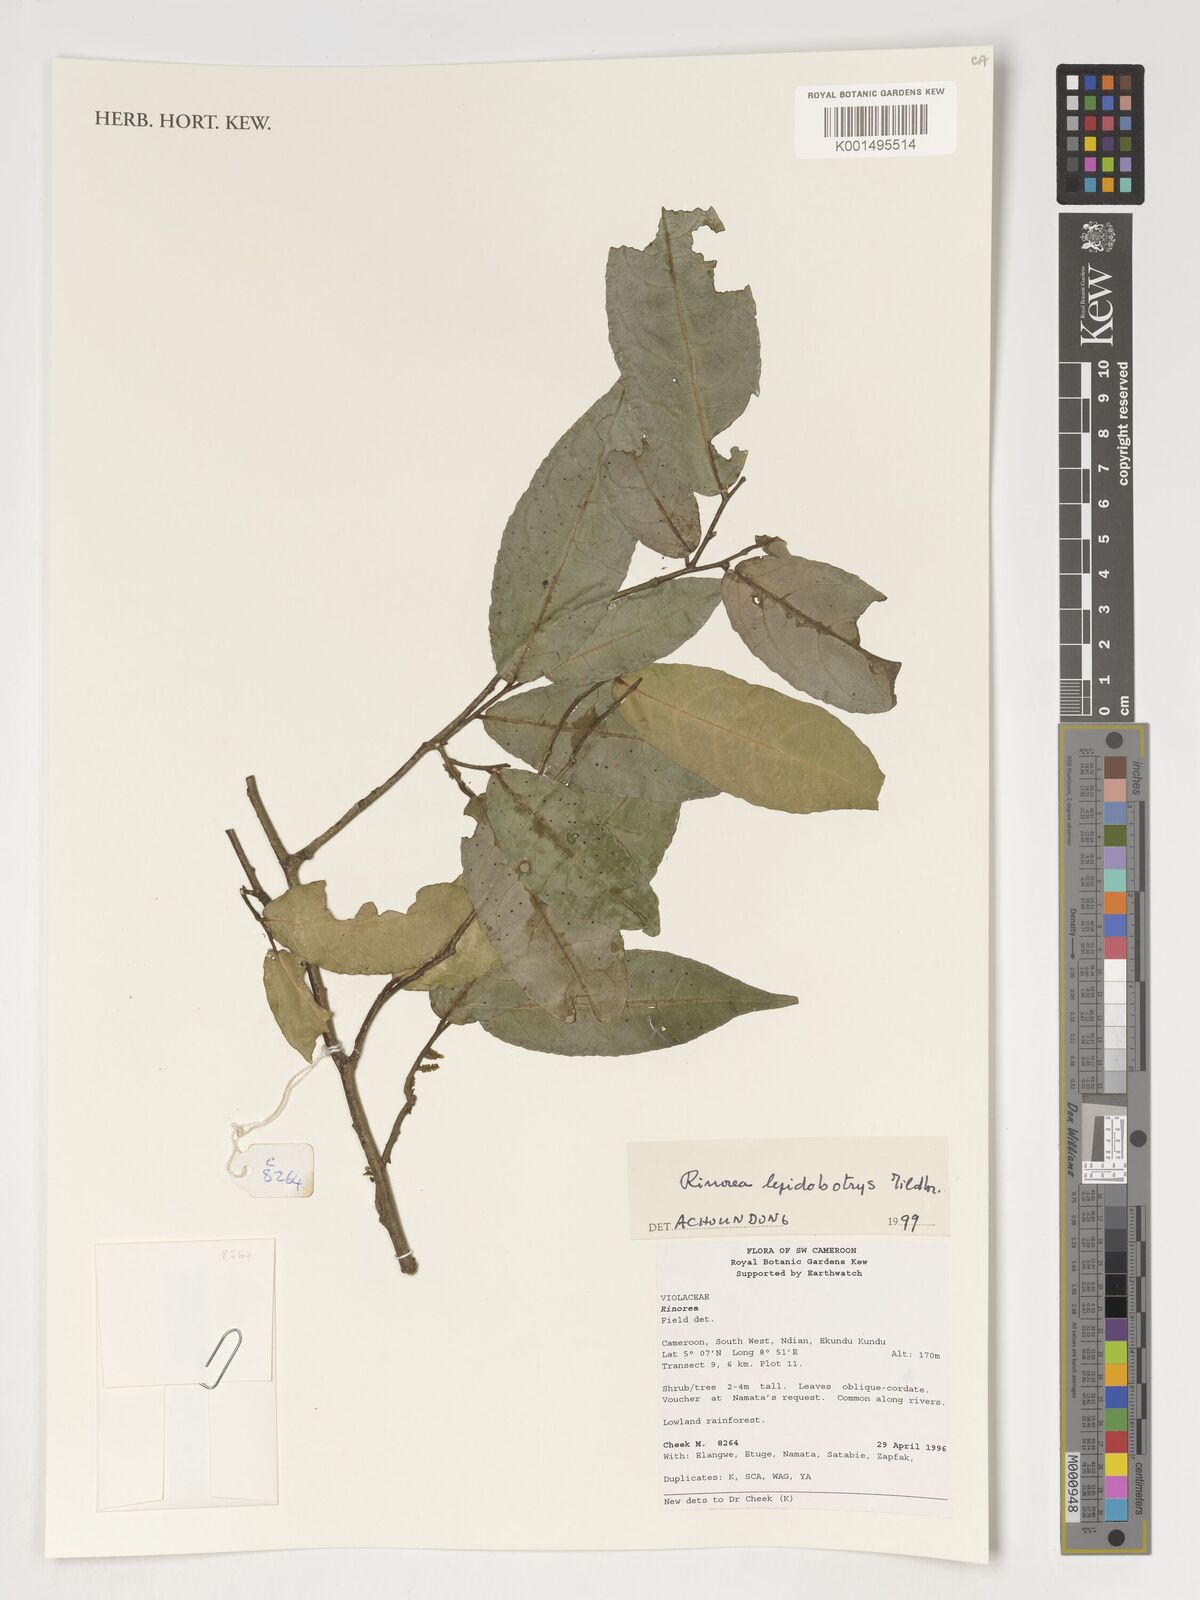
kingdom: Plantae
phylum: Tracheophyta
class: Magnoliopsida
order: Malpighiales
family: Violaceae
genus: Rinorea
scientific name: Rinorea lepidobotrys
